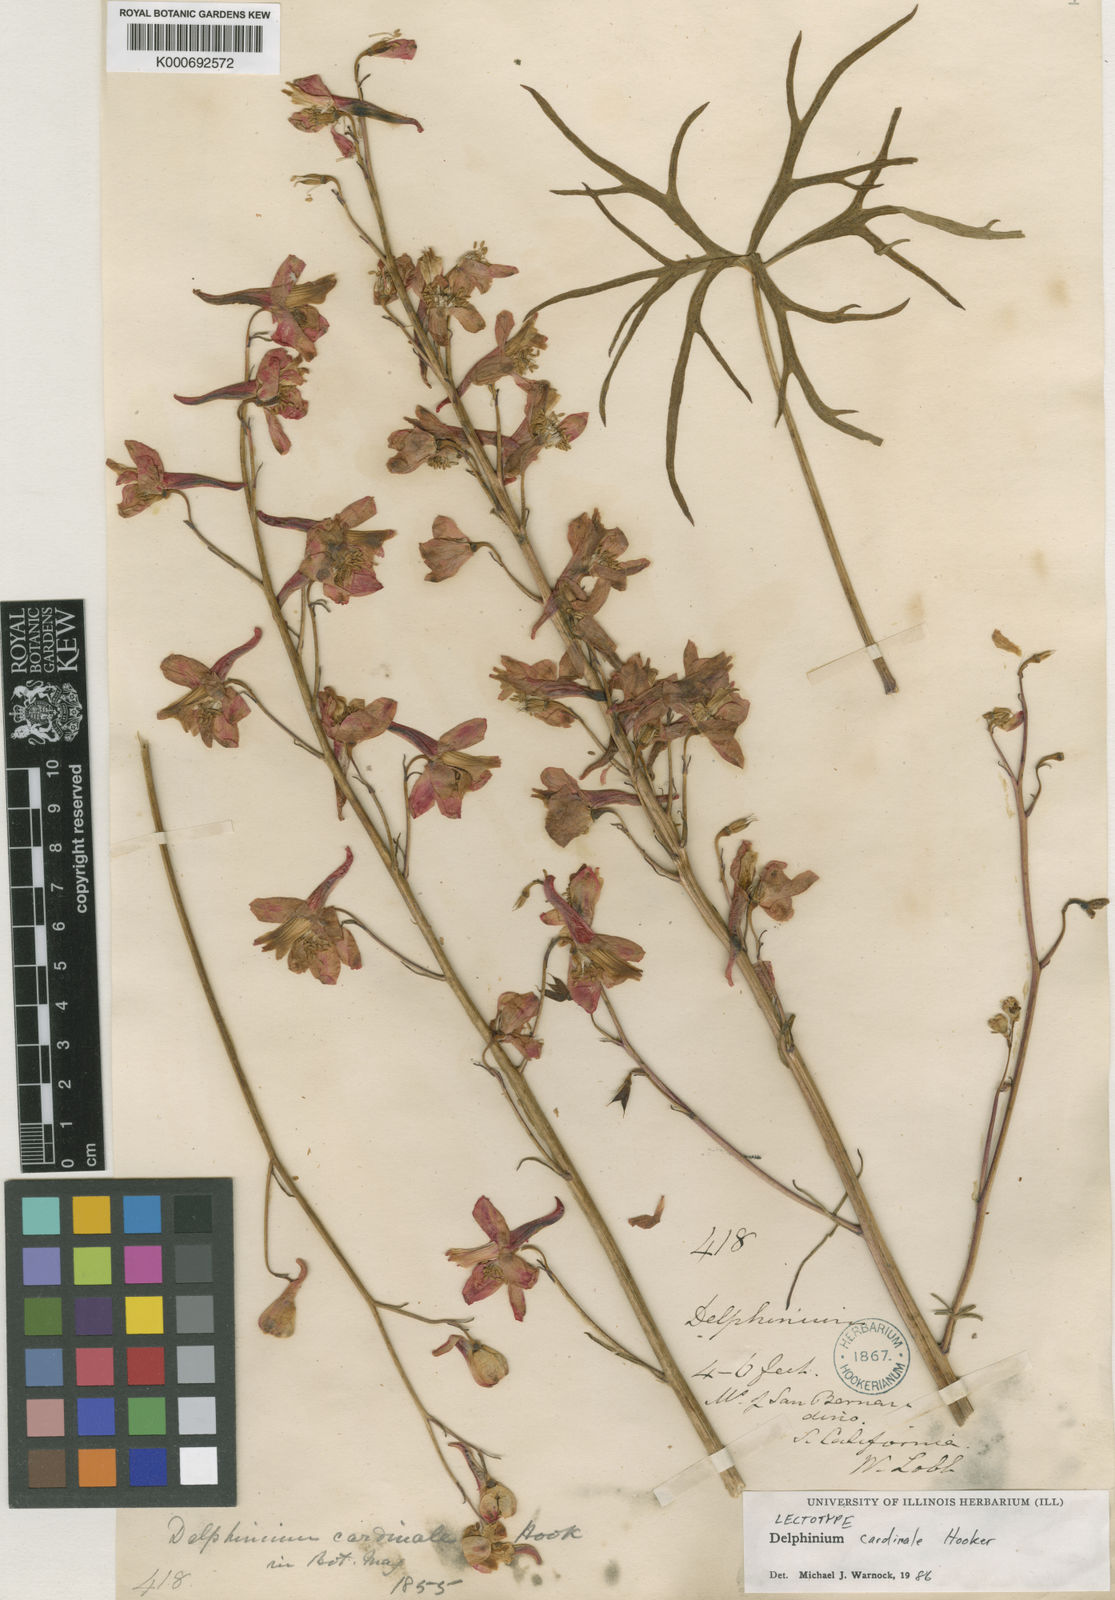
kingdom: Plantae
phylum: Tracheophyta
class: Magnoliopsida
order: Ranunculales
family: Ranunculaceae
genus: Delphinium
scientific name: Delphinium cardinale
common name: Scarlet larkspur
